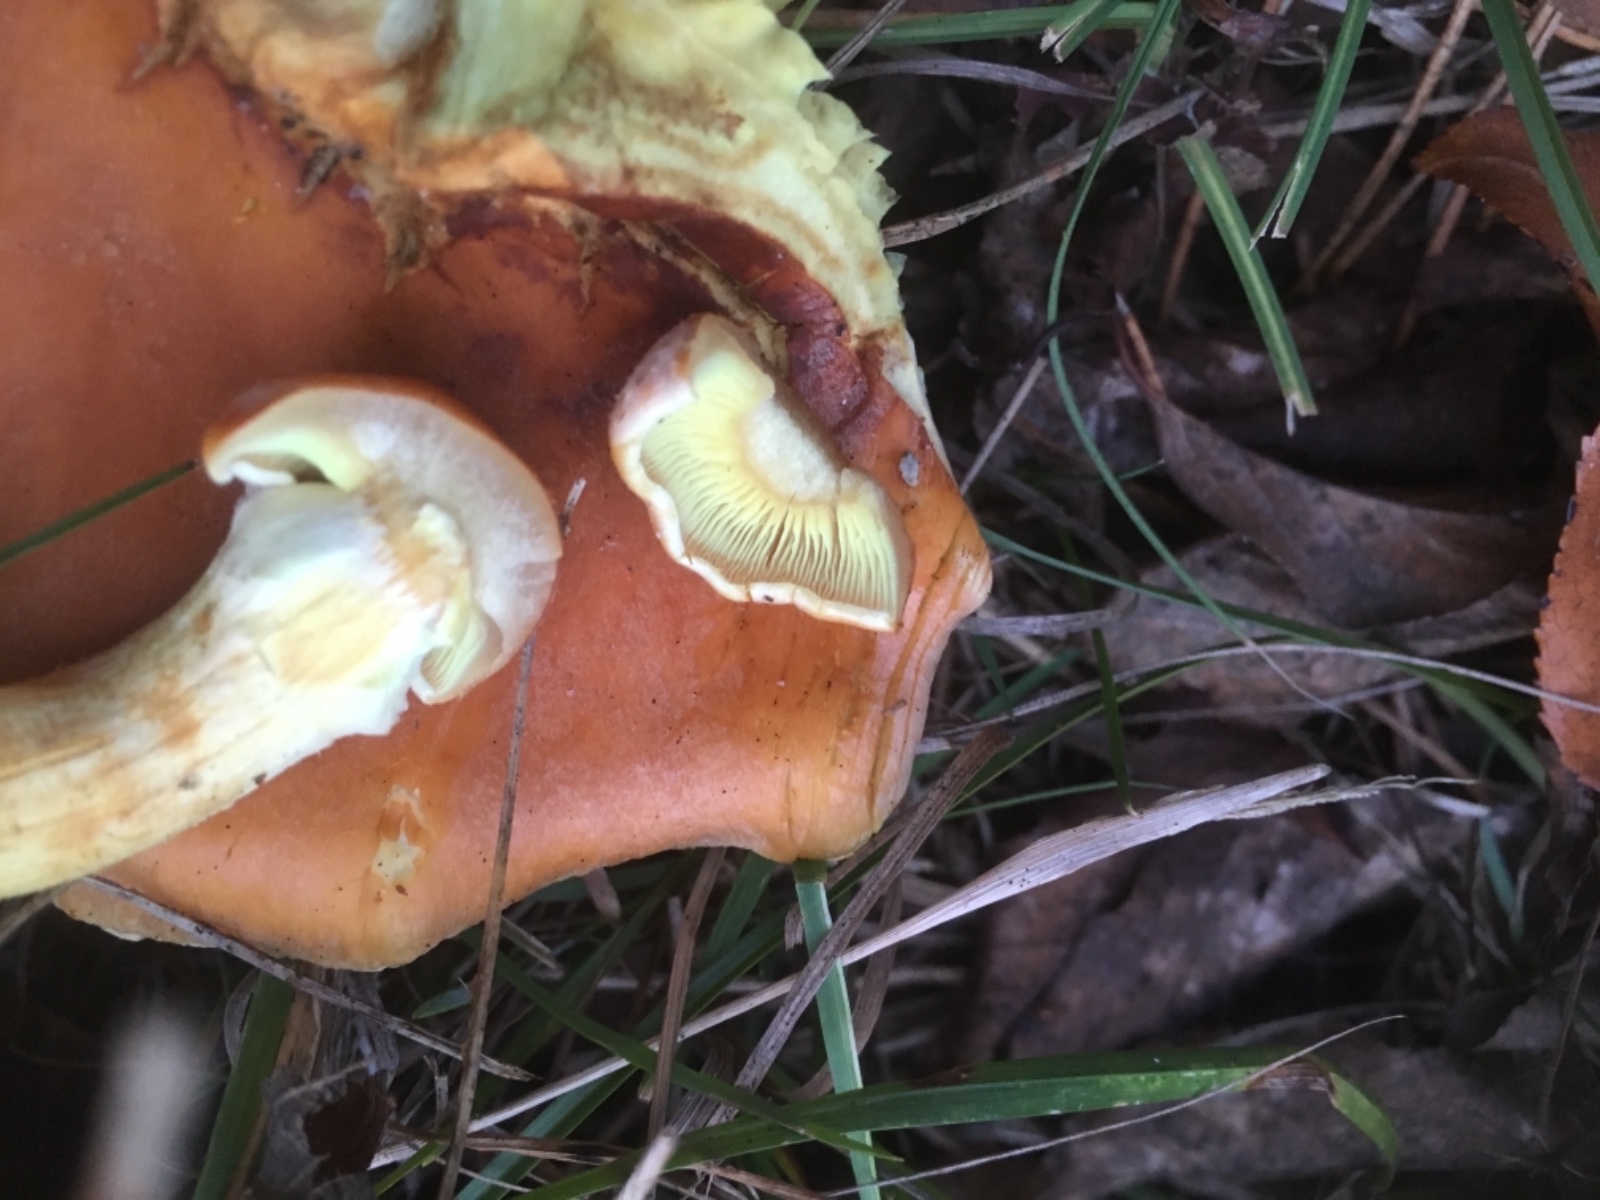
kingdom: Fungi
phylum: Basidiomycota
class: Agaricomycetes
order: Agaricales
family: Strophariaceae
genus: Hypholoma
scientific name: Hypholoma lateritium
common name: teglrød svovlhat
